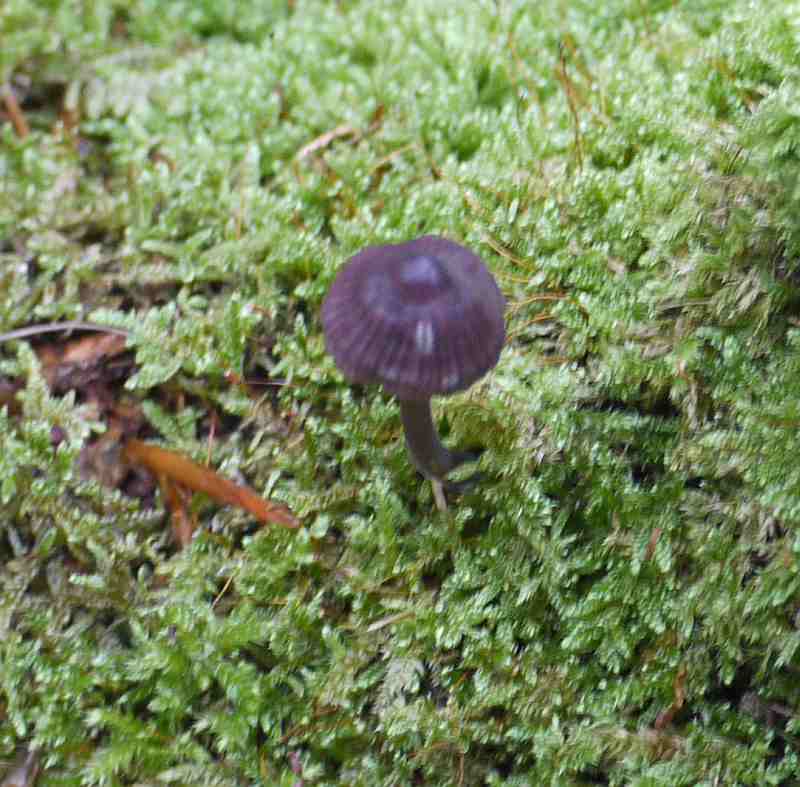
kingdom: Fungi
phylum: Basidiomycota
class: Agaricomycetes
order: Agaricales
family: Mycenaceae
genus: Mycena
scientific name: Mycena purpureofusca
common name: purpur-huesvamp
